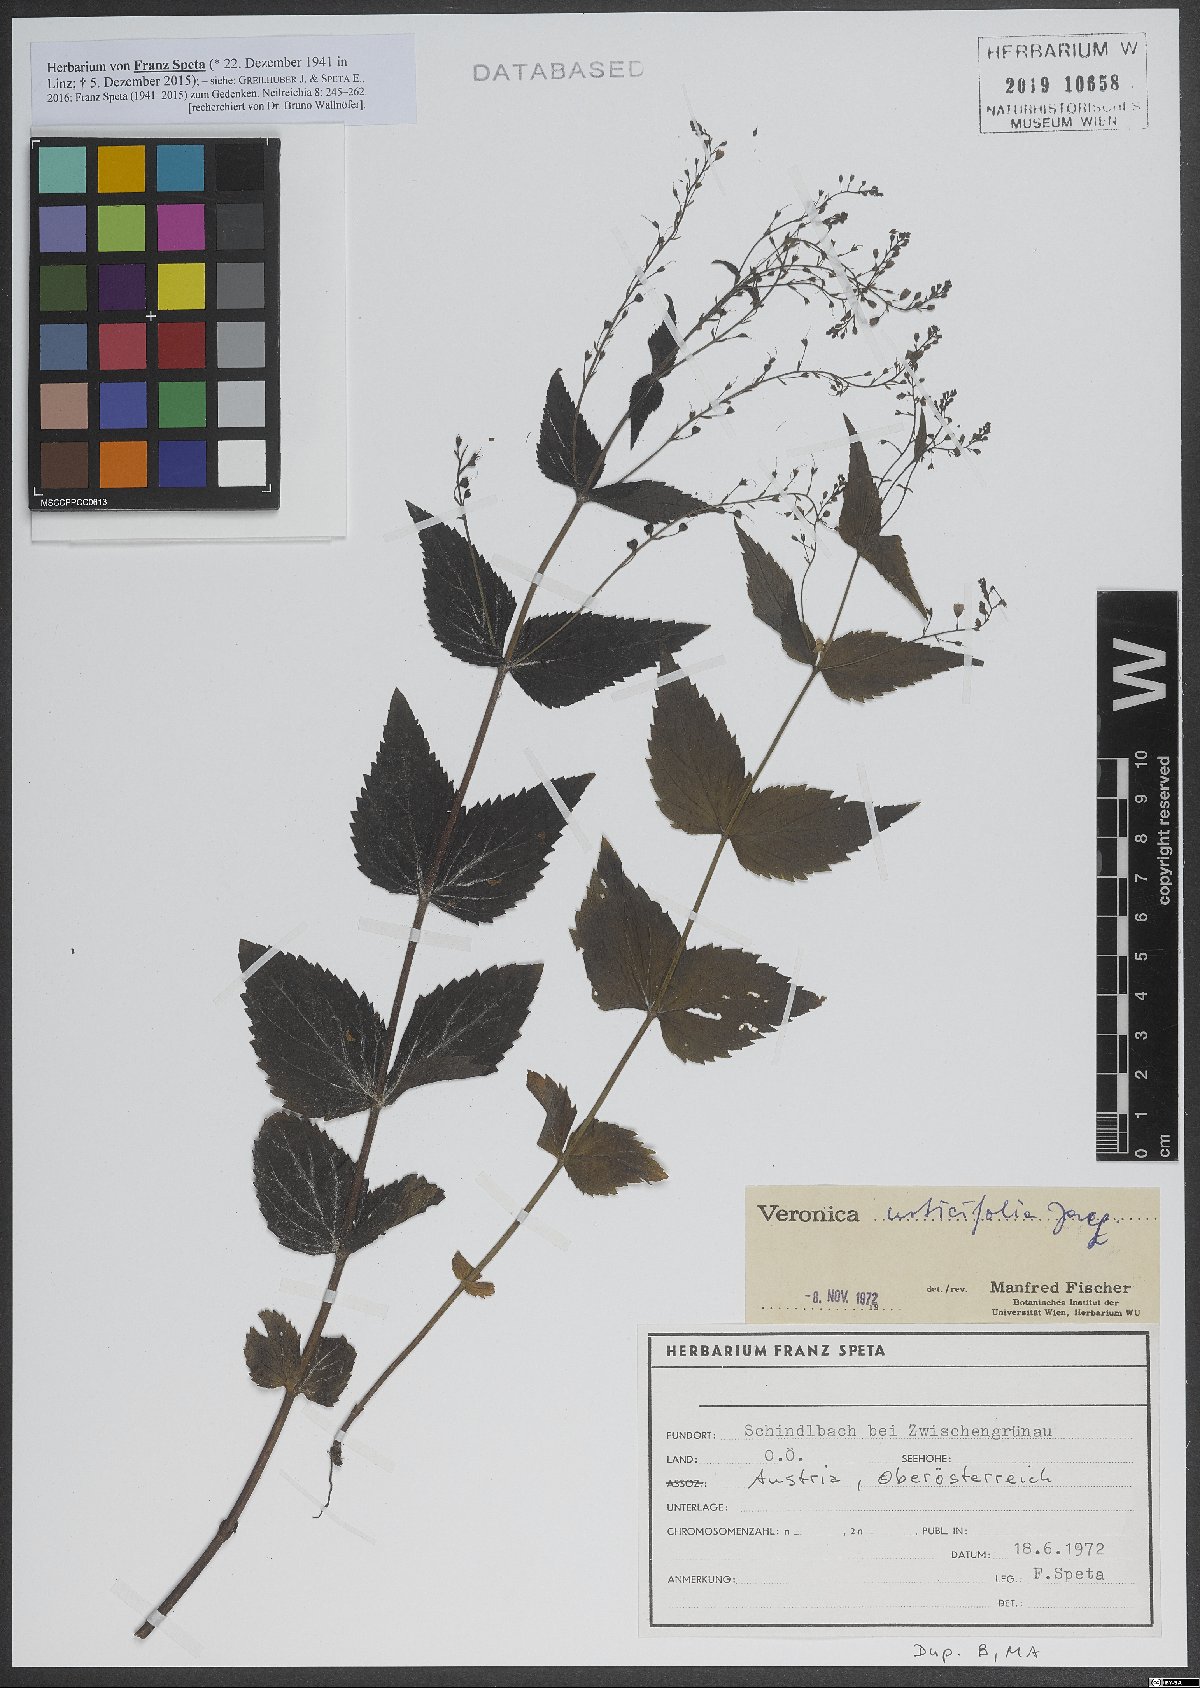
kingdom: Plantae
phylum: Tracheophyta
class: Magnoliopsida
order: Lamiales
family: Plantaginaceae
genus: Veronica
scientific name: Veronica urticifolia
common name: Nettle-leaf speedwell
